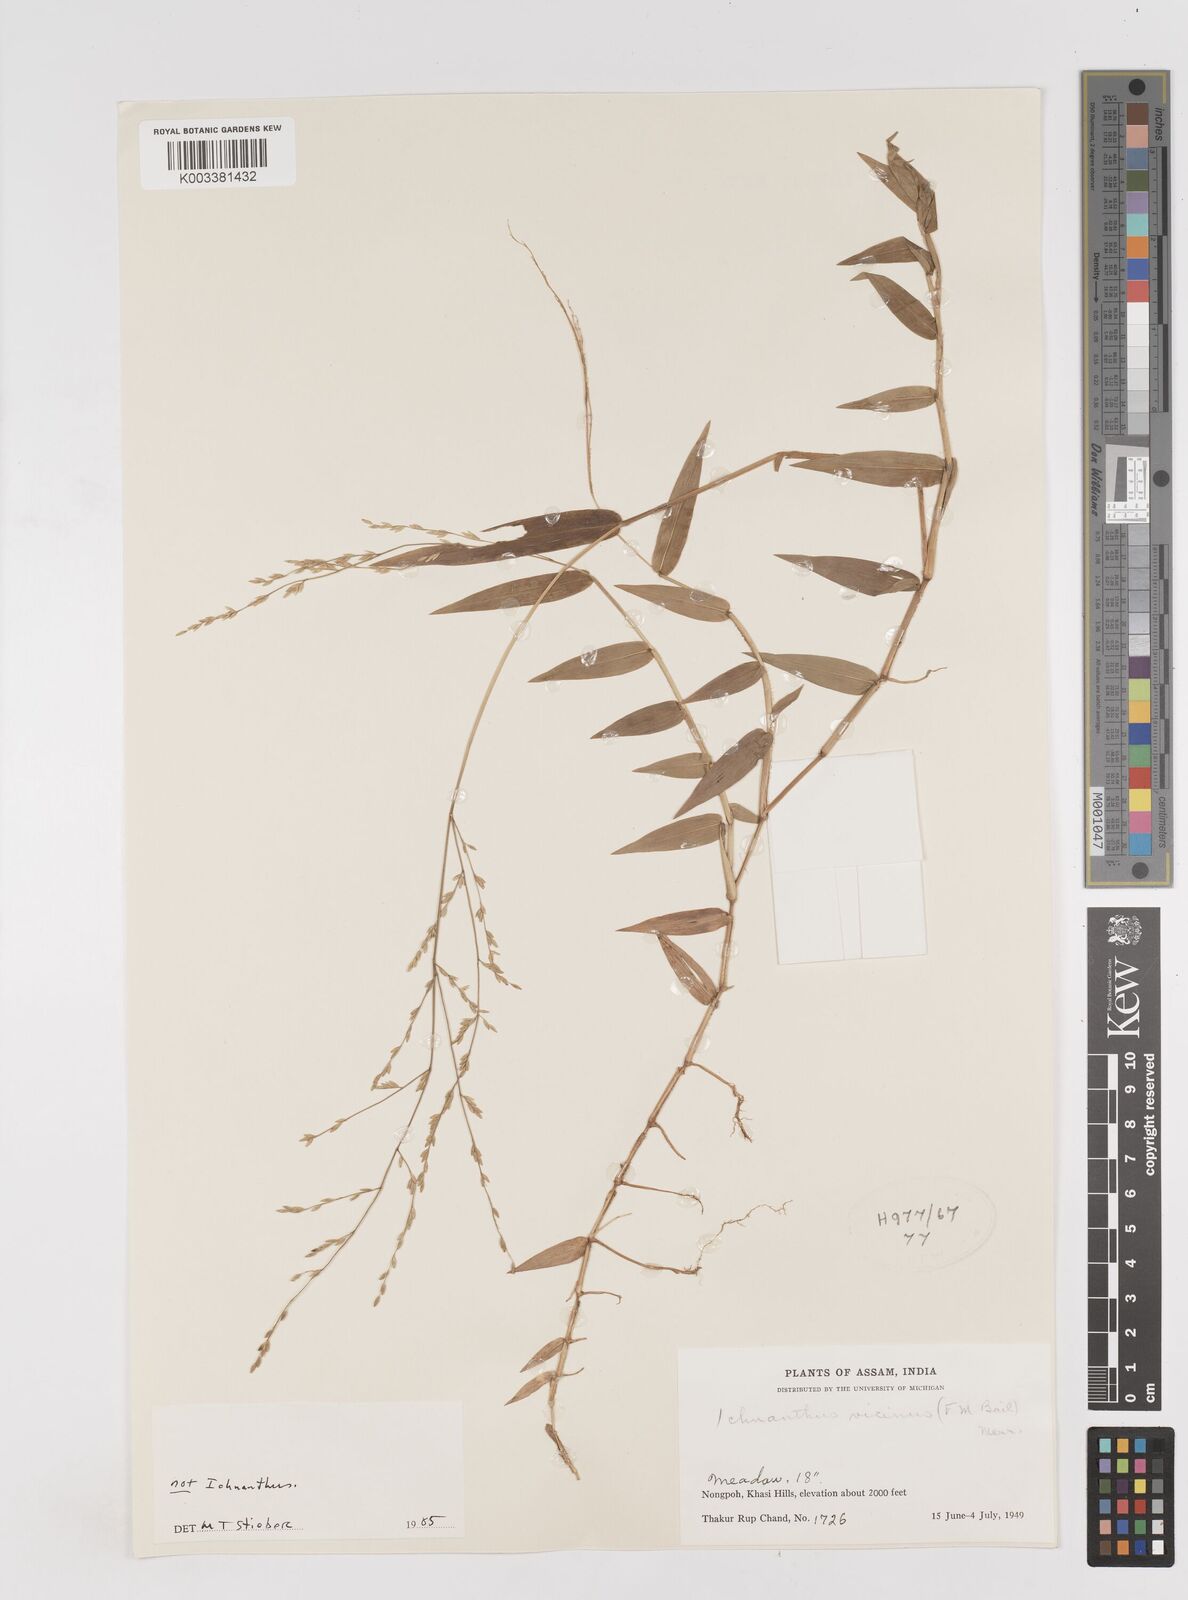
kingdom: Plantae
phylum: Tracheophyta
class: Liliopsida
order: Poales
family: Poaceae
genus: Ottochloa
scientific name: Ottochloa nodosa
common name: Slender-panic grass
